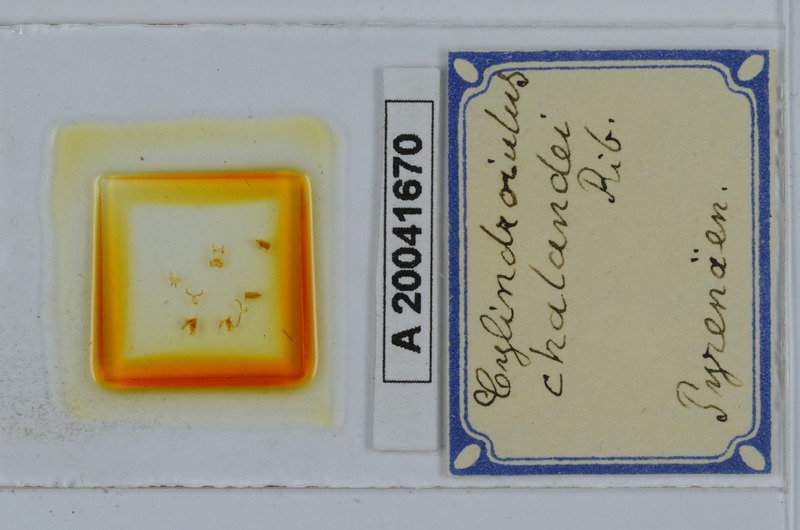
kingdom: Animalia
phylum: Arthropoda
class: Diplopoda
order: Julida
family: Julidae
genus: Cylindroiulus
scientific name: Cylindroiulus chalandei
